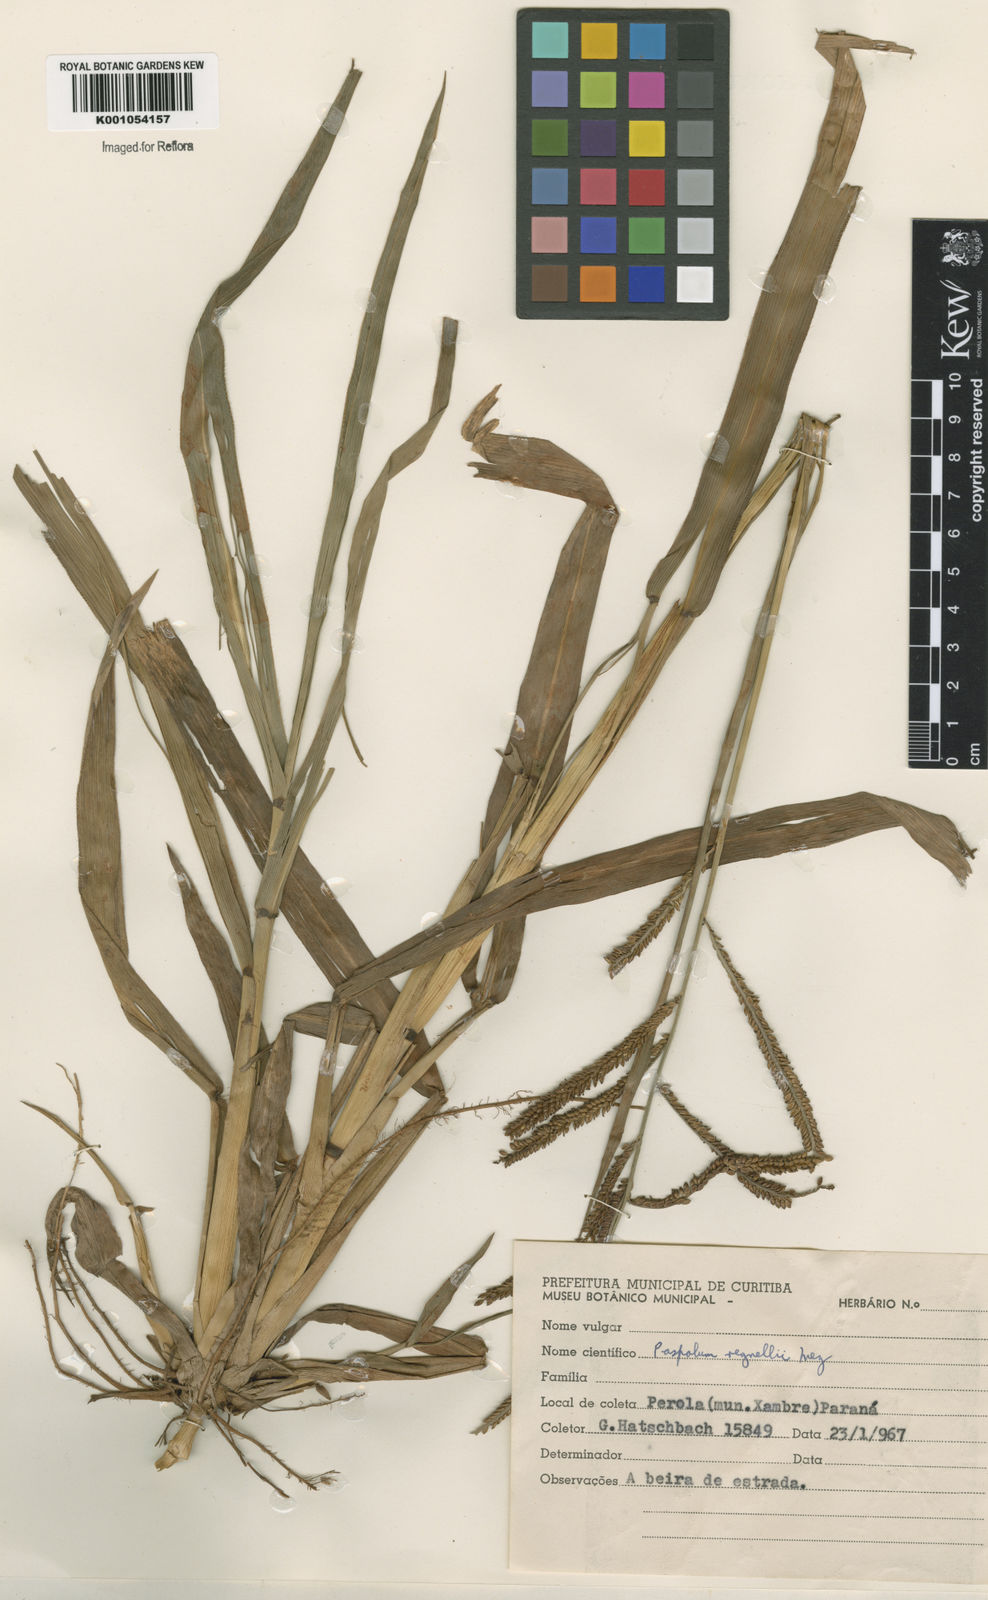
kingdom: Plantae
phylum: Tracheophyta
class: Liliopsida
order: Poales
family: Poaceae
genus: Paspalum
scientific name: Paspalum conspersum
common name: Scattered paspalum
